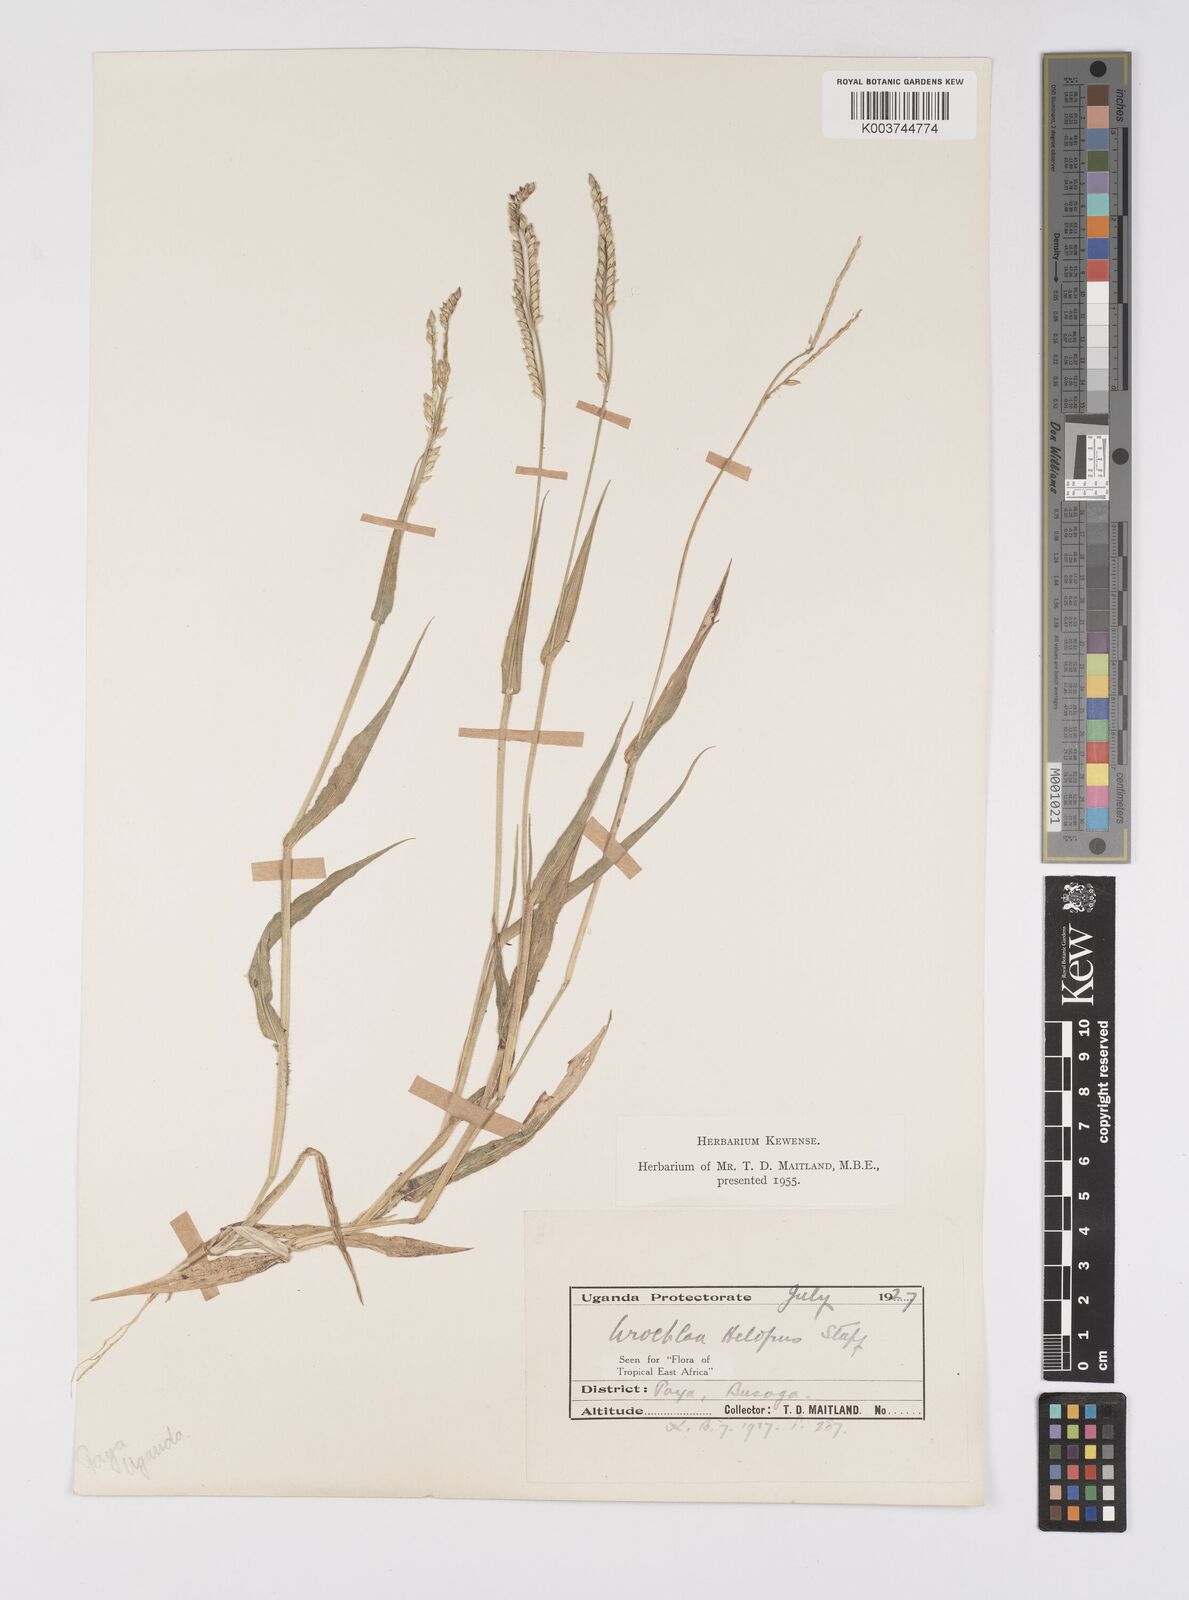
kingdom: Plantae
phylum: Tracheophyta
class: Liliopsida
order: Poales
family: Poaceae
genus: Urochloa
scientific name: Urochloa panicoides
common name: Sharp-flowered signal-grass
